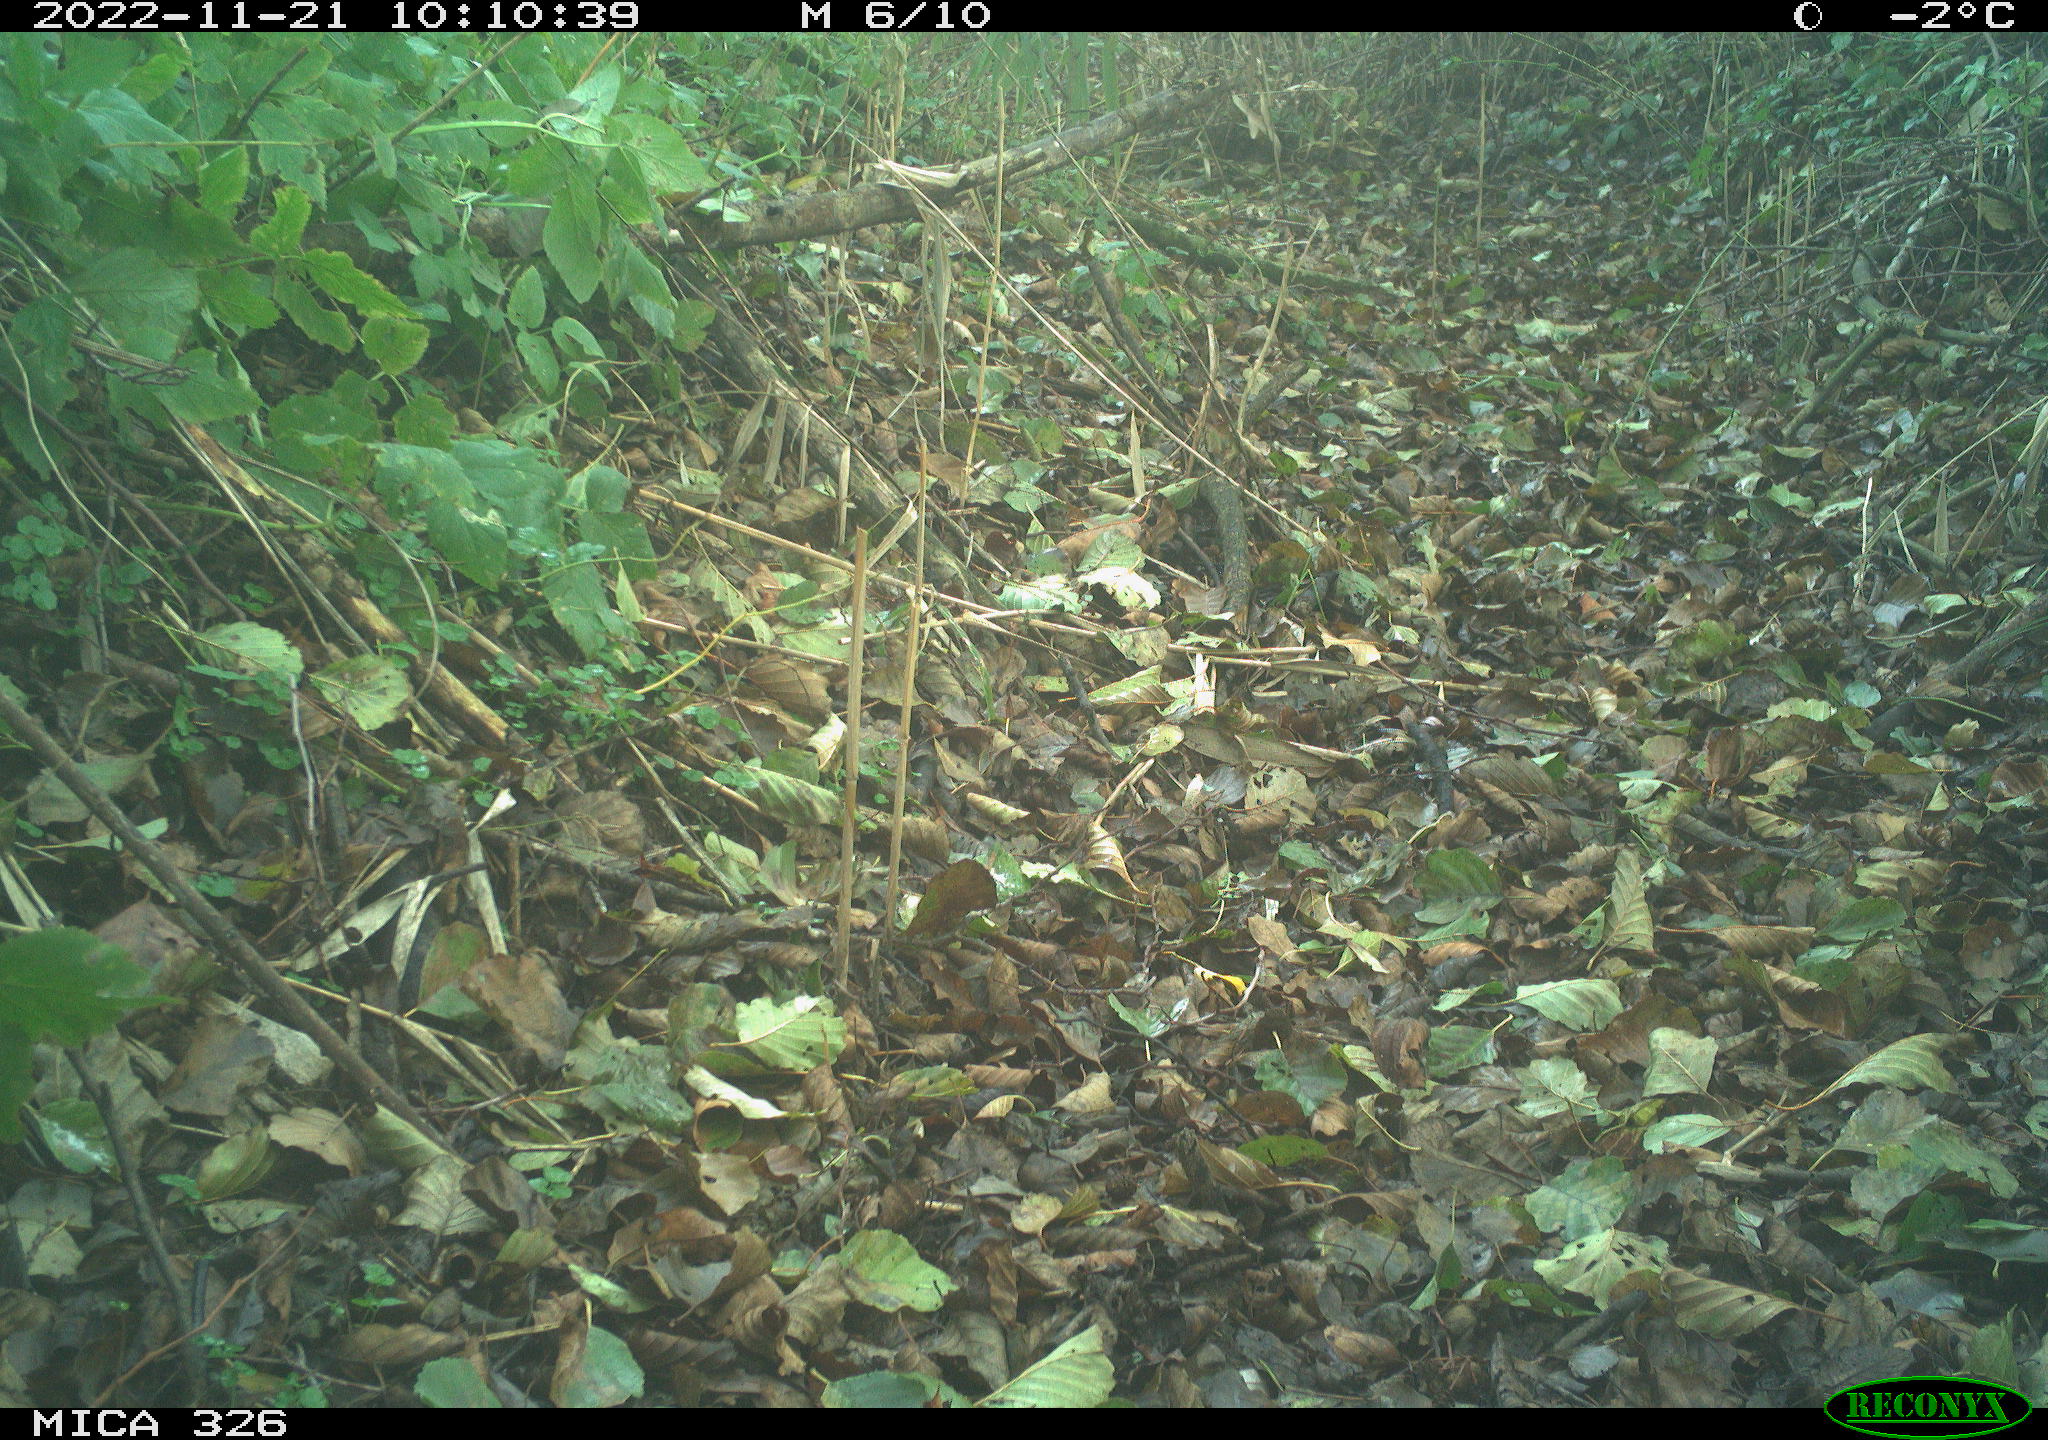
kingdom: Animalia
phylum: Chordata
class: Mammalia
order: Artiodactyla
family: Cervidae
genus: Capreolus
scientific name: Capreolus capreolus
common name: Western roe deer
